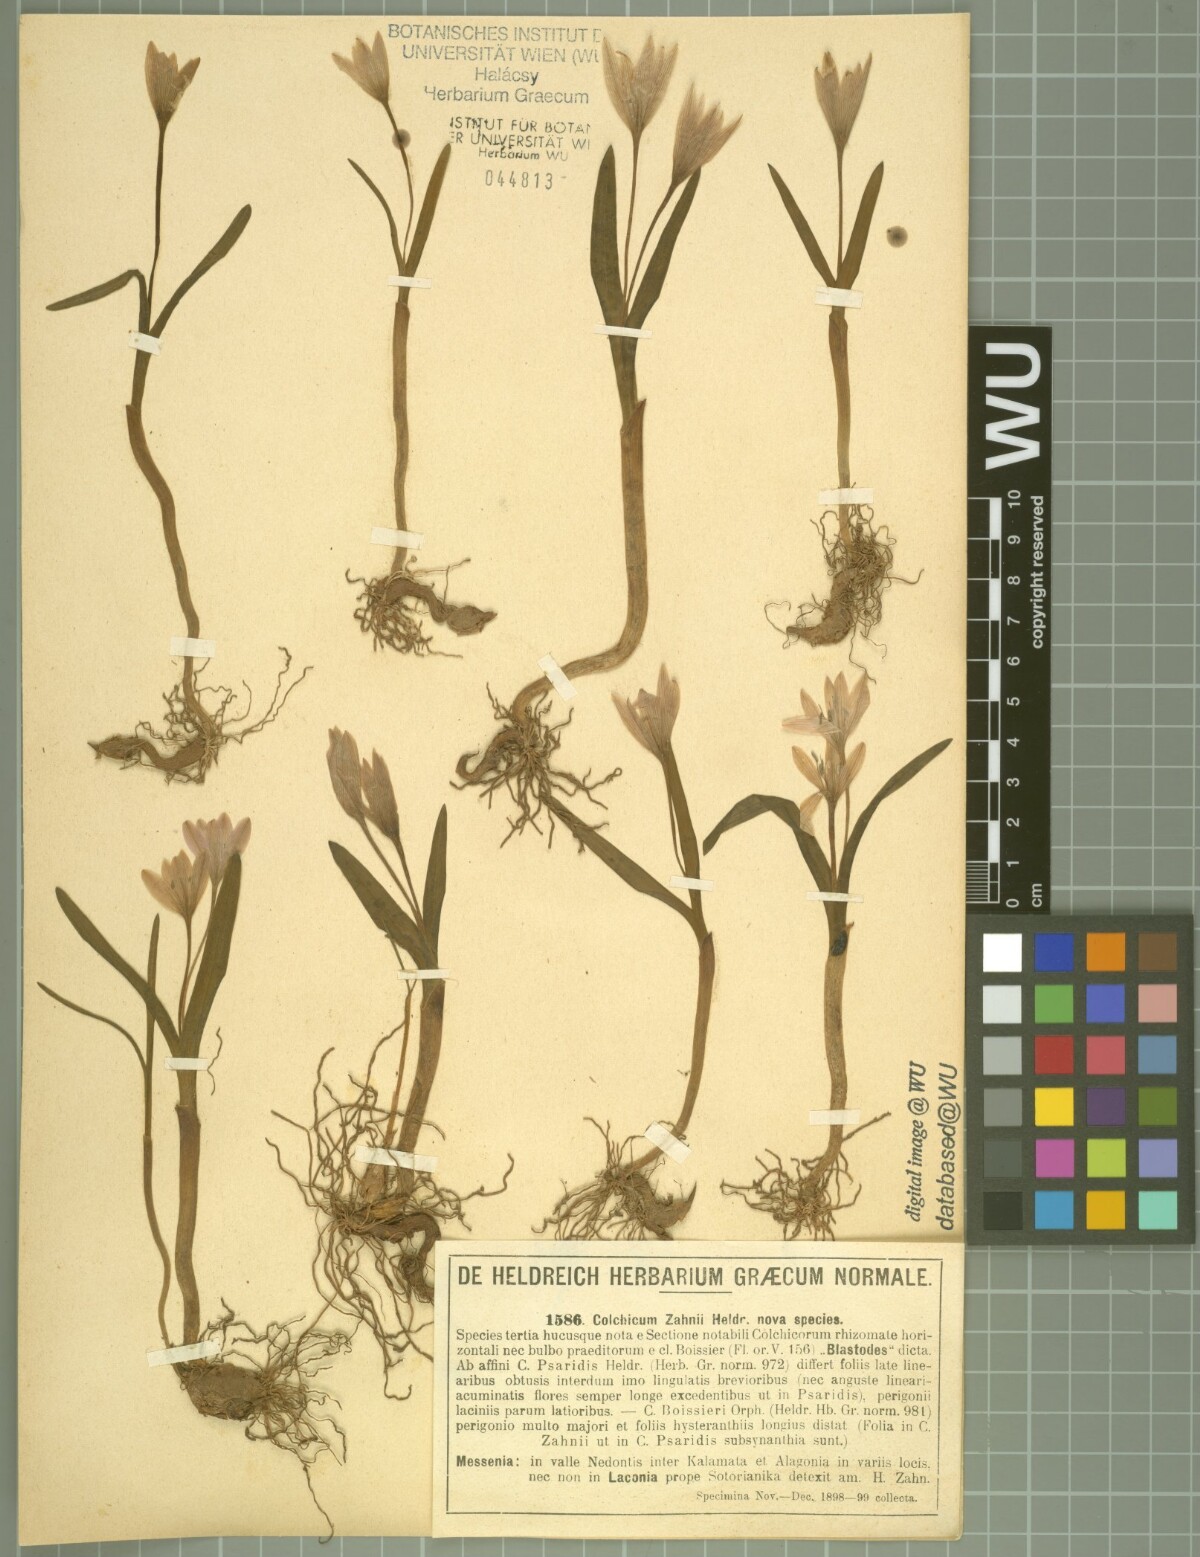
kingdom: Plantae
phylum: Tracheophyta
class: Liliopsida
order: Liliales
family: Colchicaceae
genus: Colchicum
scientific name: Colchicum zahnii
